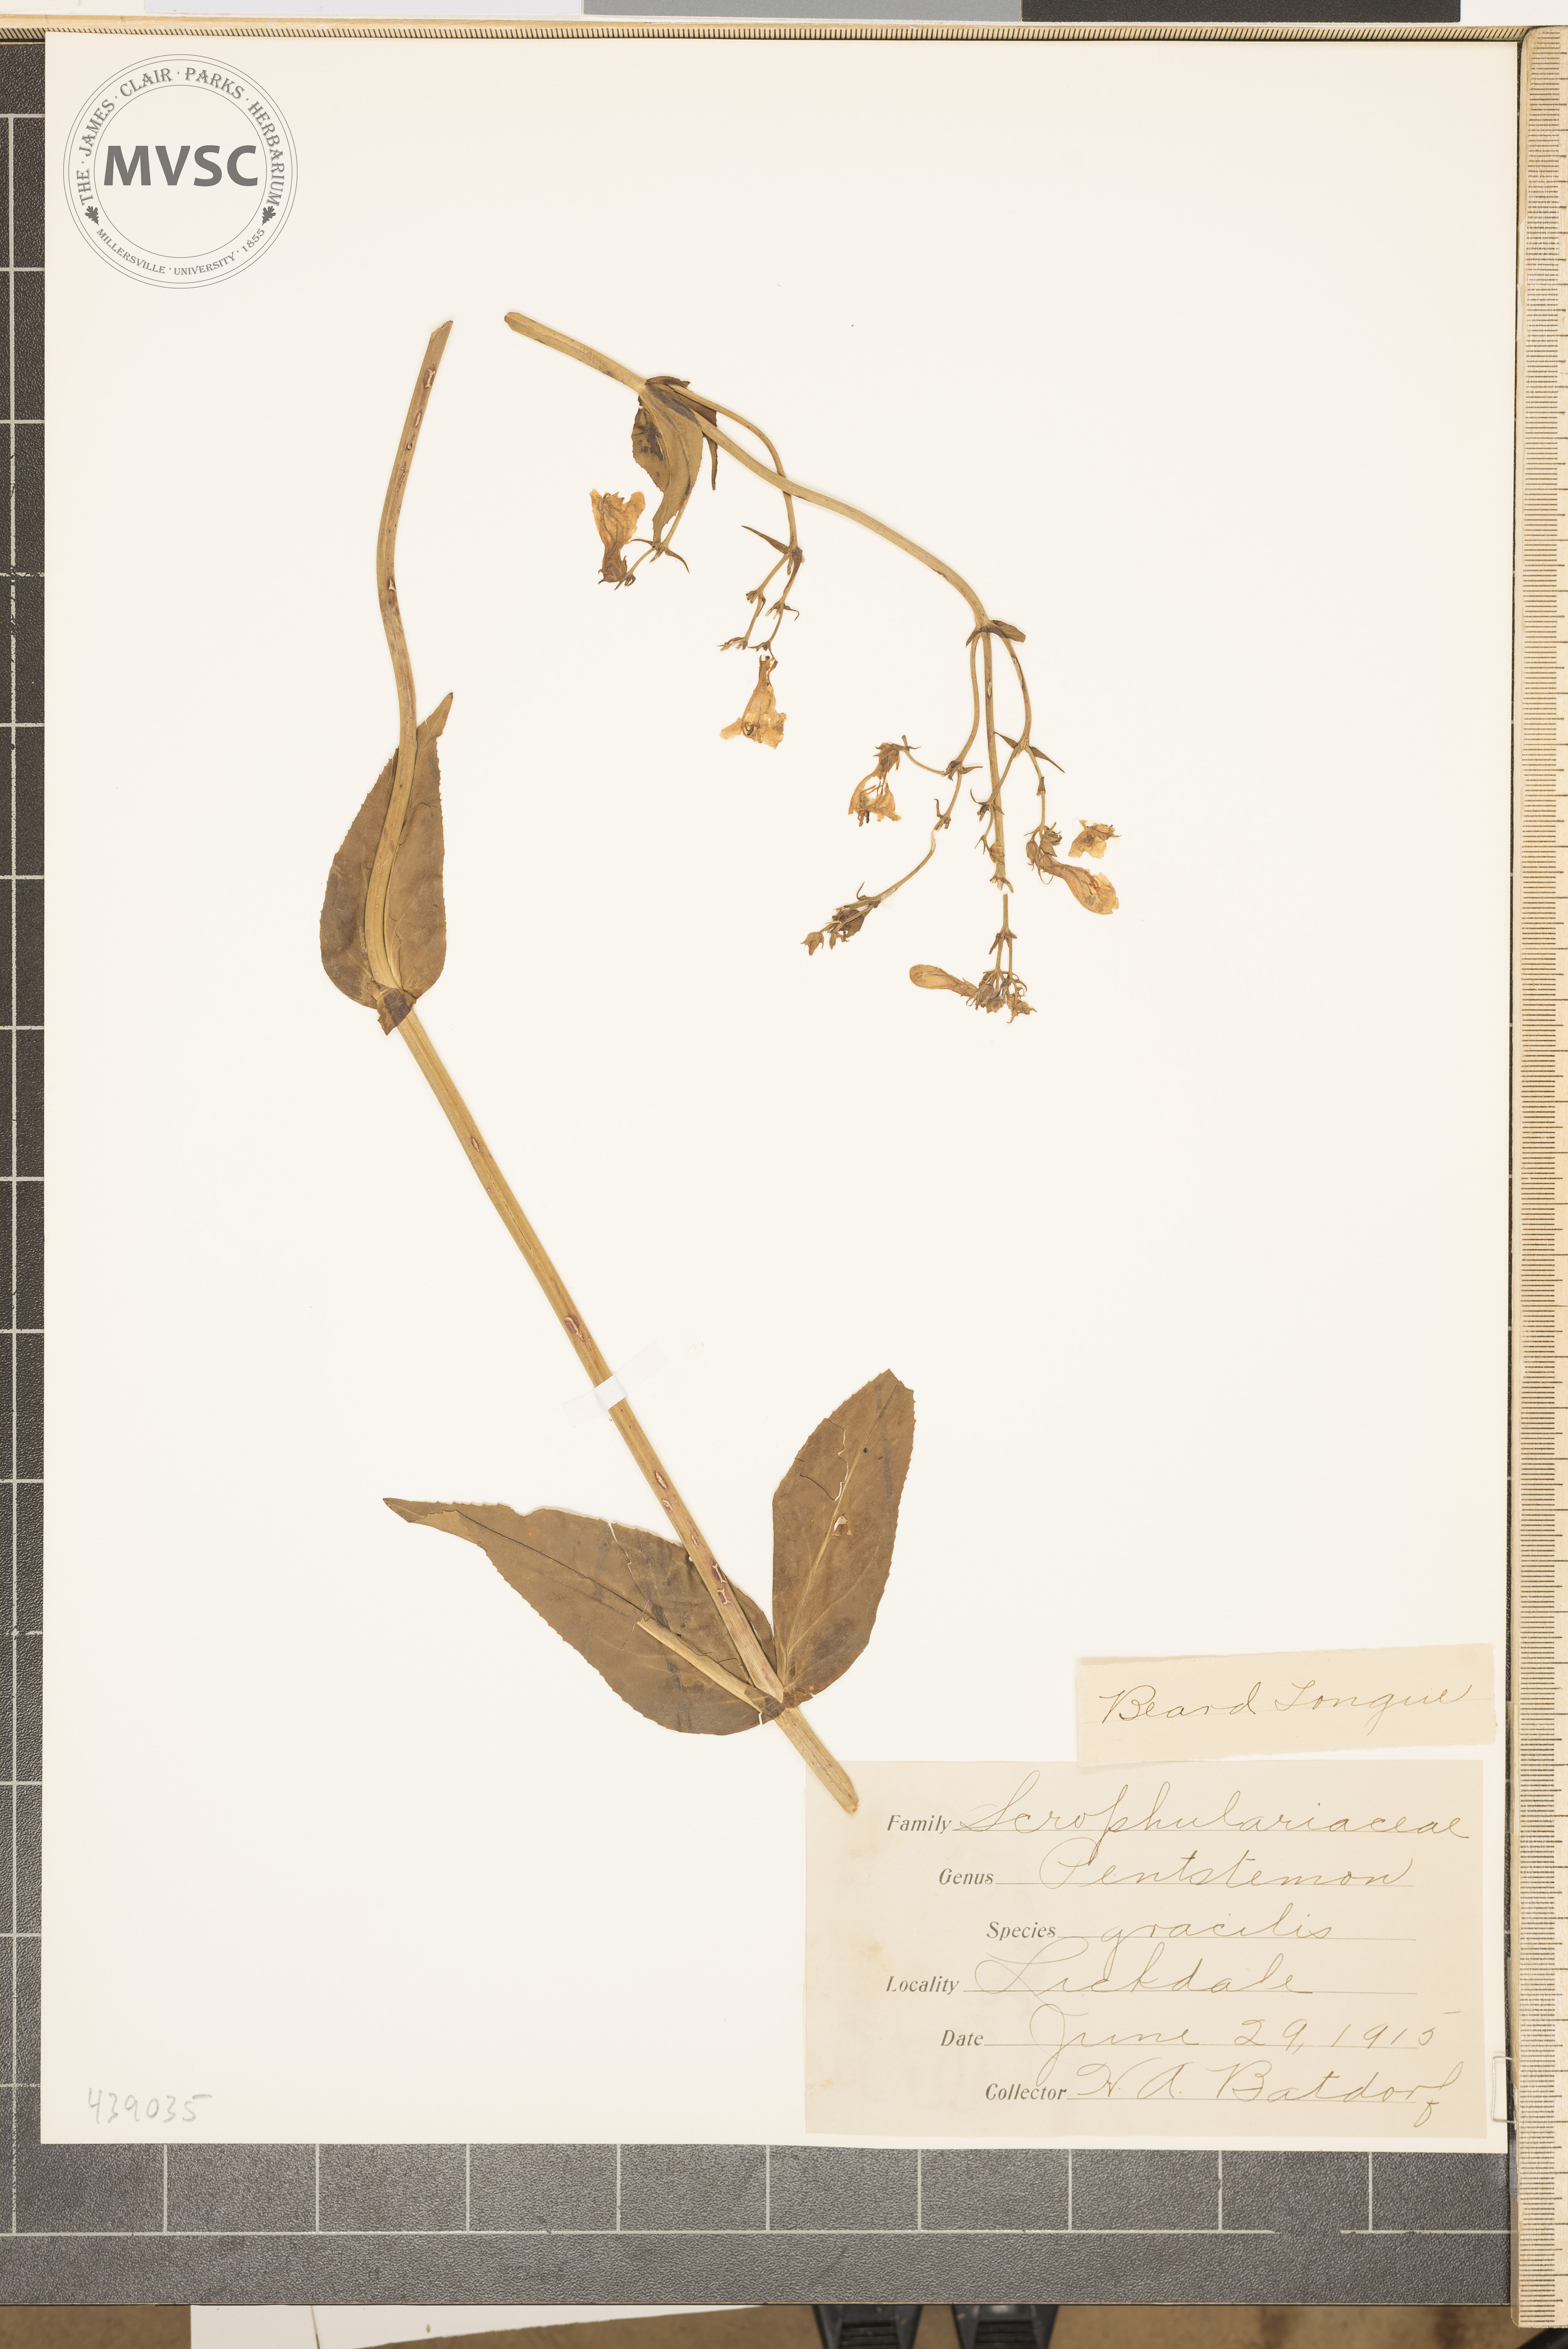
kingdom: Plantae
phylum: Tracheophyta
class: Magnoliopsida
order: Lamiales
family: Plantaginaceae
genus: Penstemon
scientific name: Penstemon digitalis
